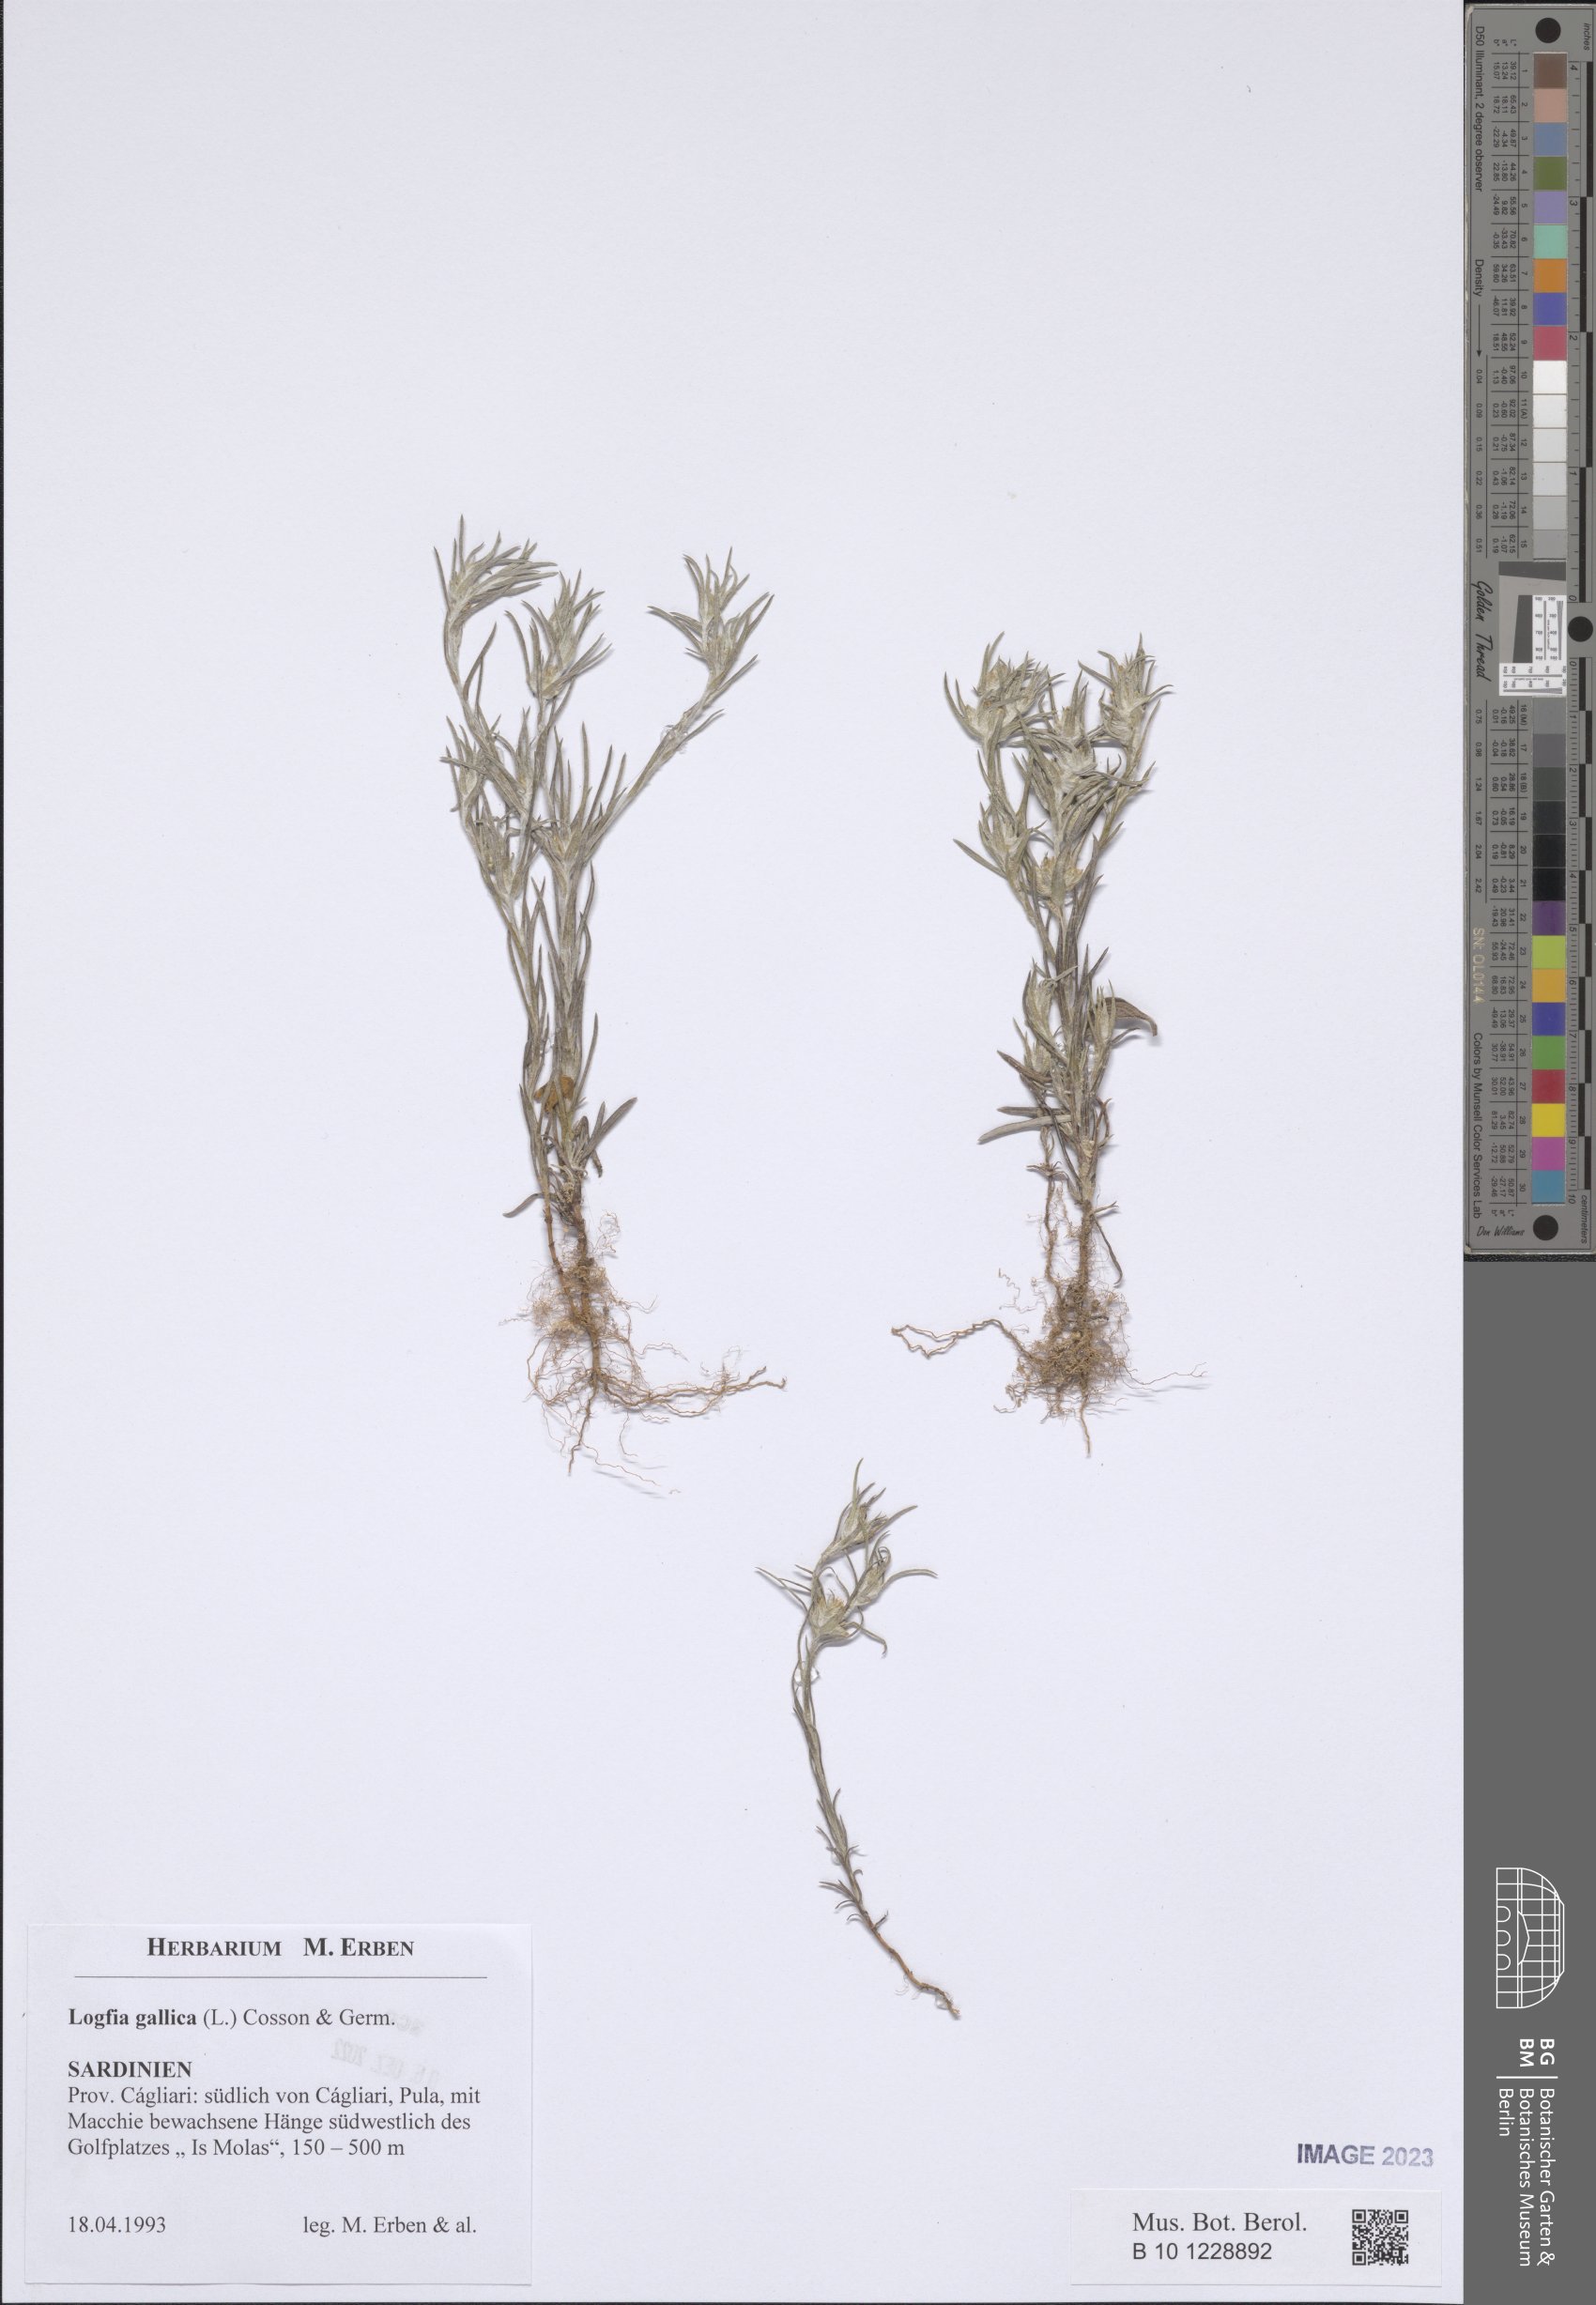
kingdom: Plantae
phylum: Tracheophyta
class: Magnoliopsida
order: Asterales
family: Asteraceae
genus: Logfia
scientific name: Logfia gallica
